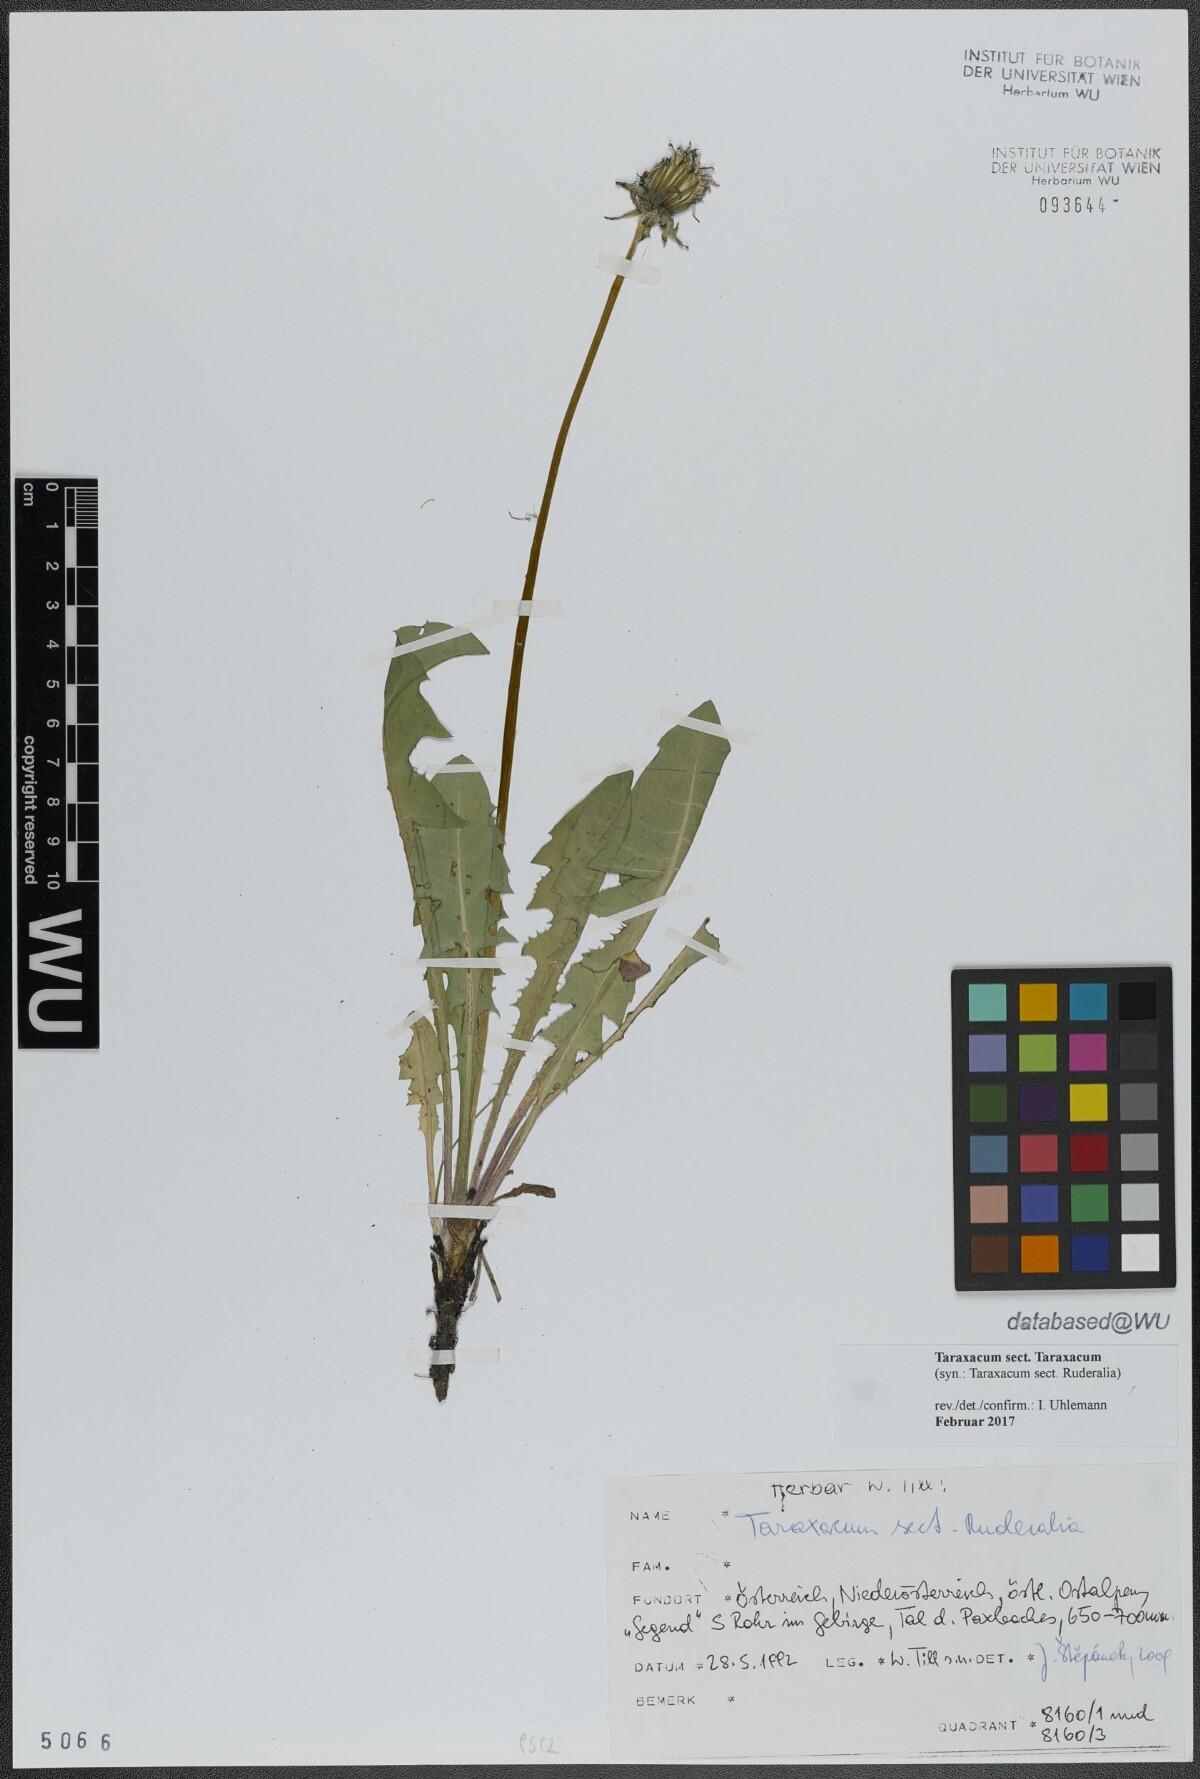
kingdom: Plantae
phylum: Tracheophyta
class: Magnoliopsida
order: Asterales
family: Asteraceae
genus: Taraxacum
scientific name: Taraxacum
